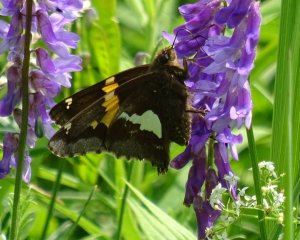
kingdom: Animalia
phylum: Arthropoda
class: Insecta
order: Lepidoptera
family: Hesperiidae
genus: Epargyreus
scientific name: Epargyreus clarus
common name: Silver-spotted Skipper
